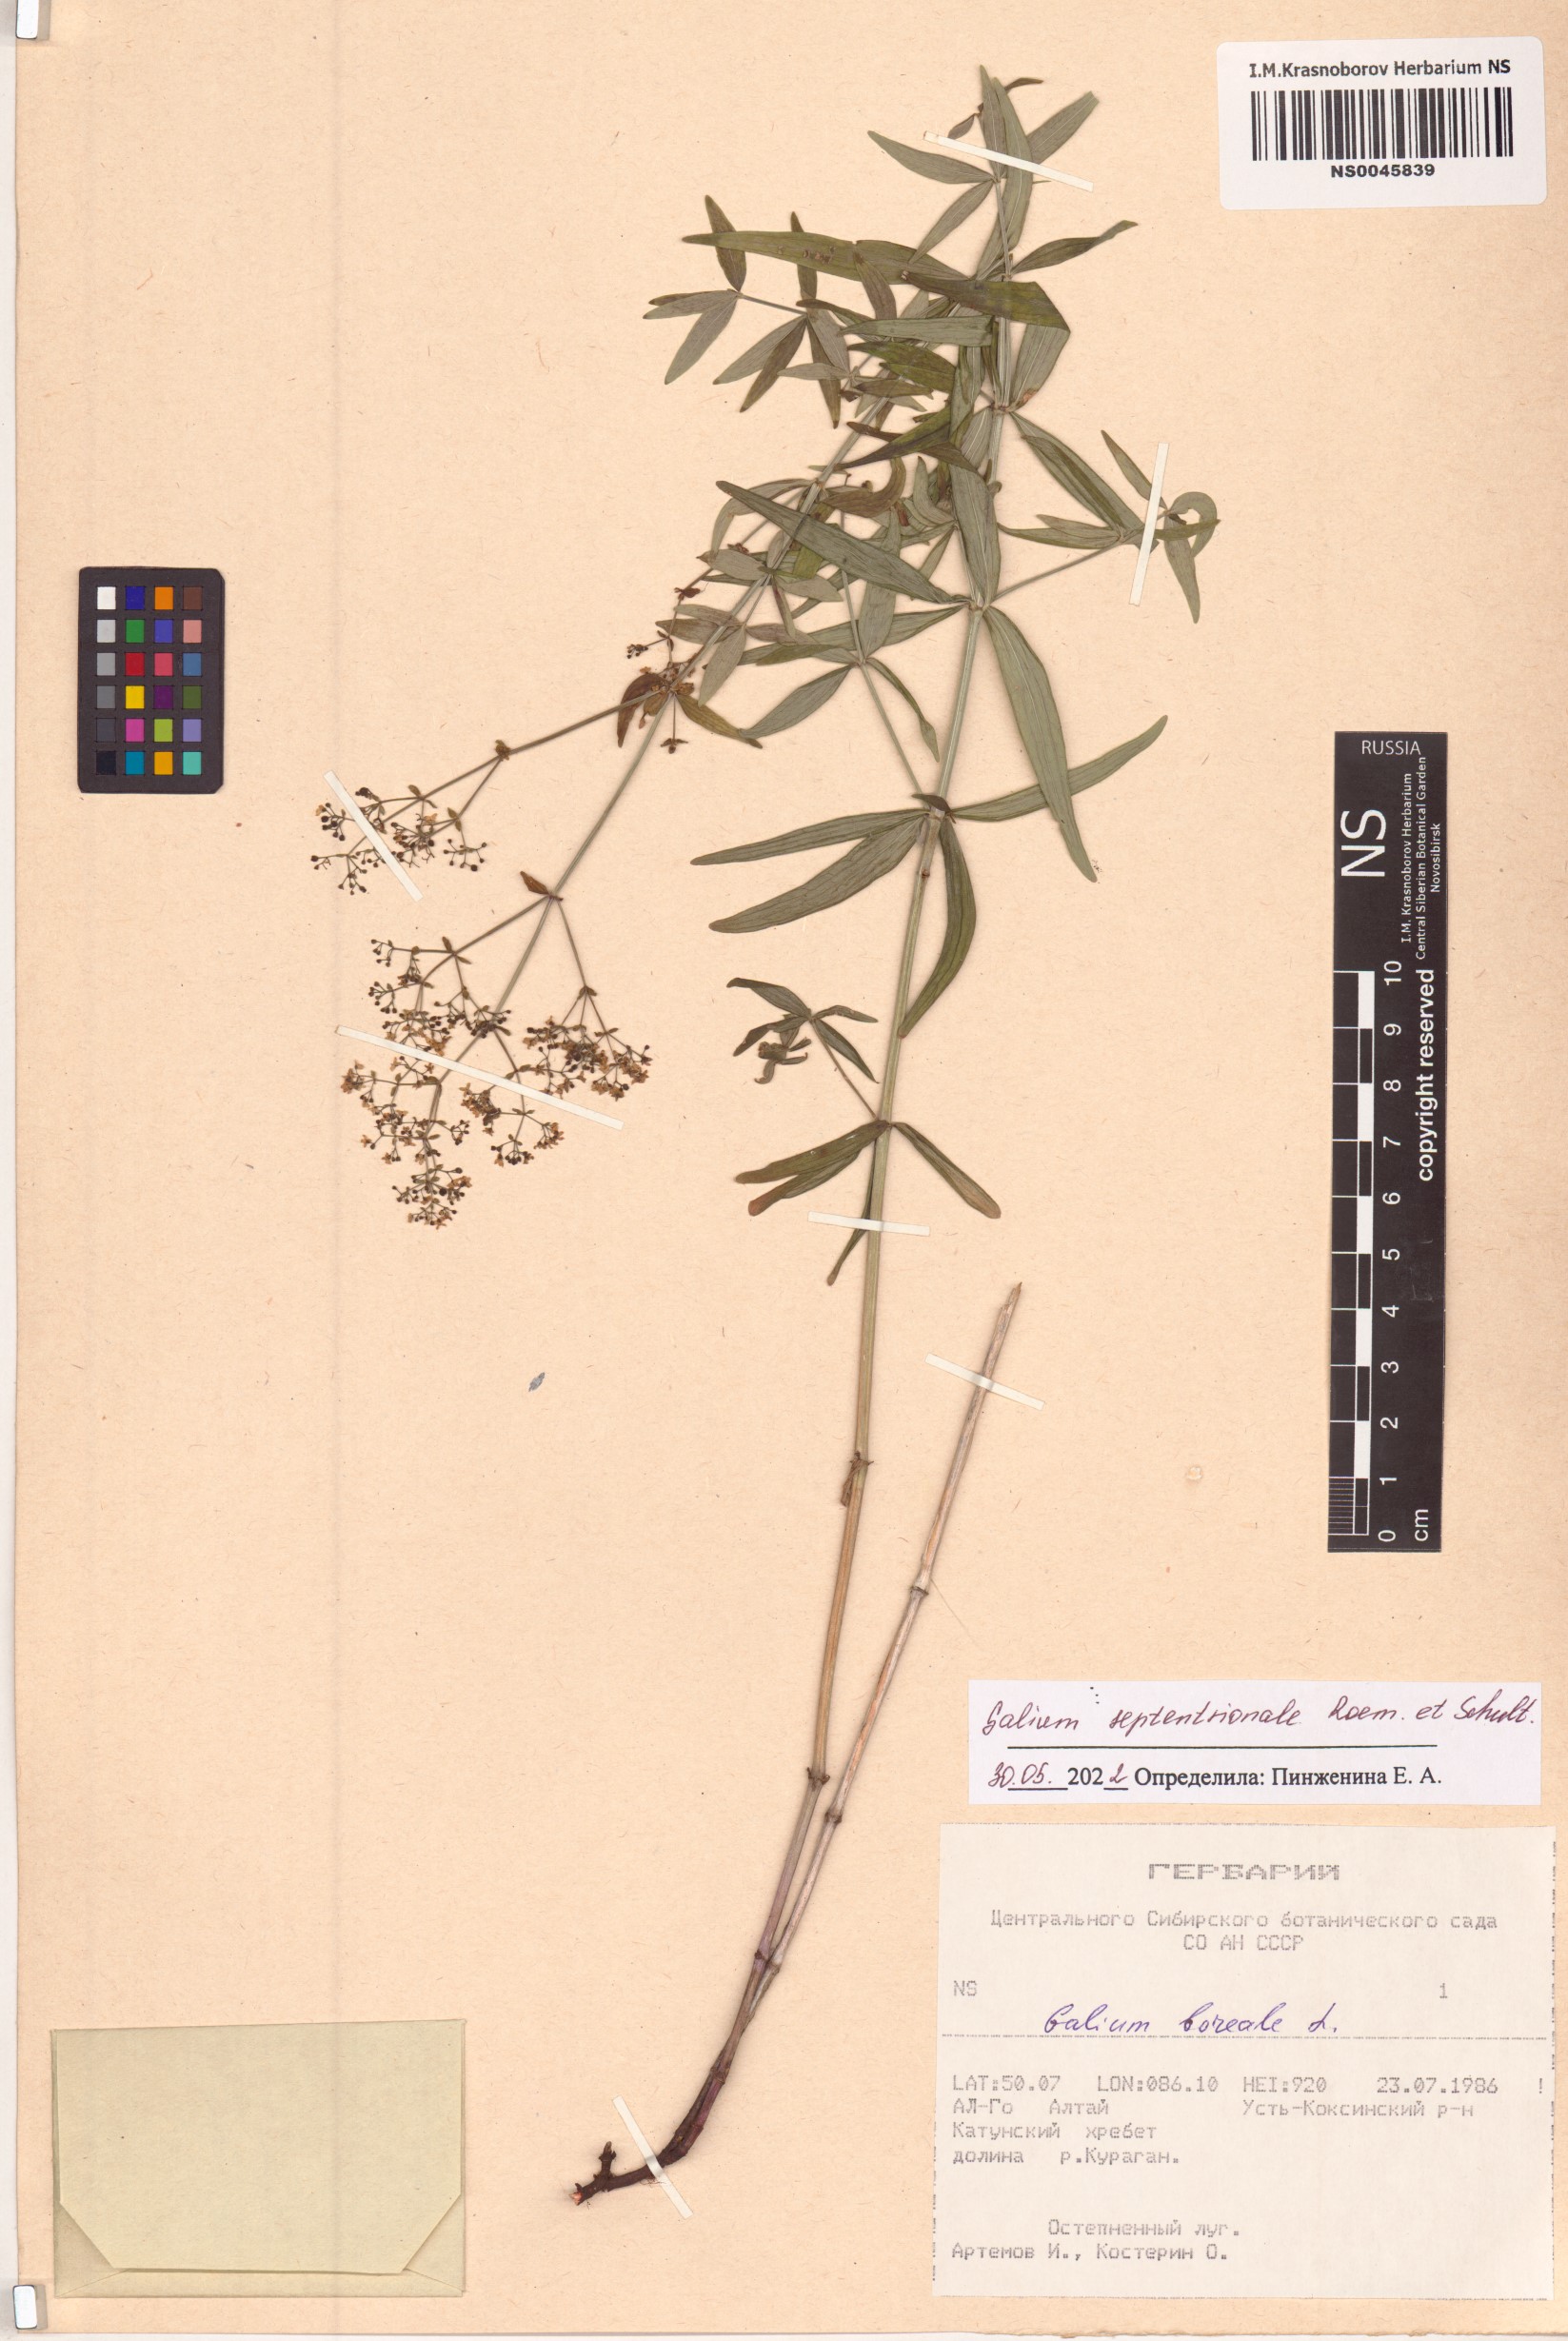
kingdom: Plantae
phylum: Tracheophyta
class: Magnoliopsida
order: Gentianales
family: Rubiaceae
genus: Galium
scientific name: Galium boreale
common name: Northern bedstraw
